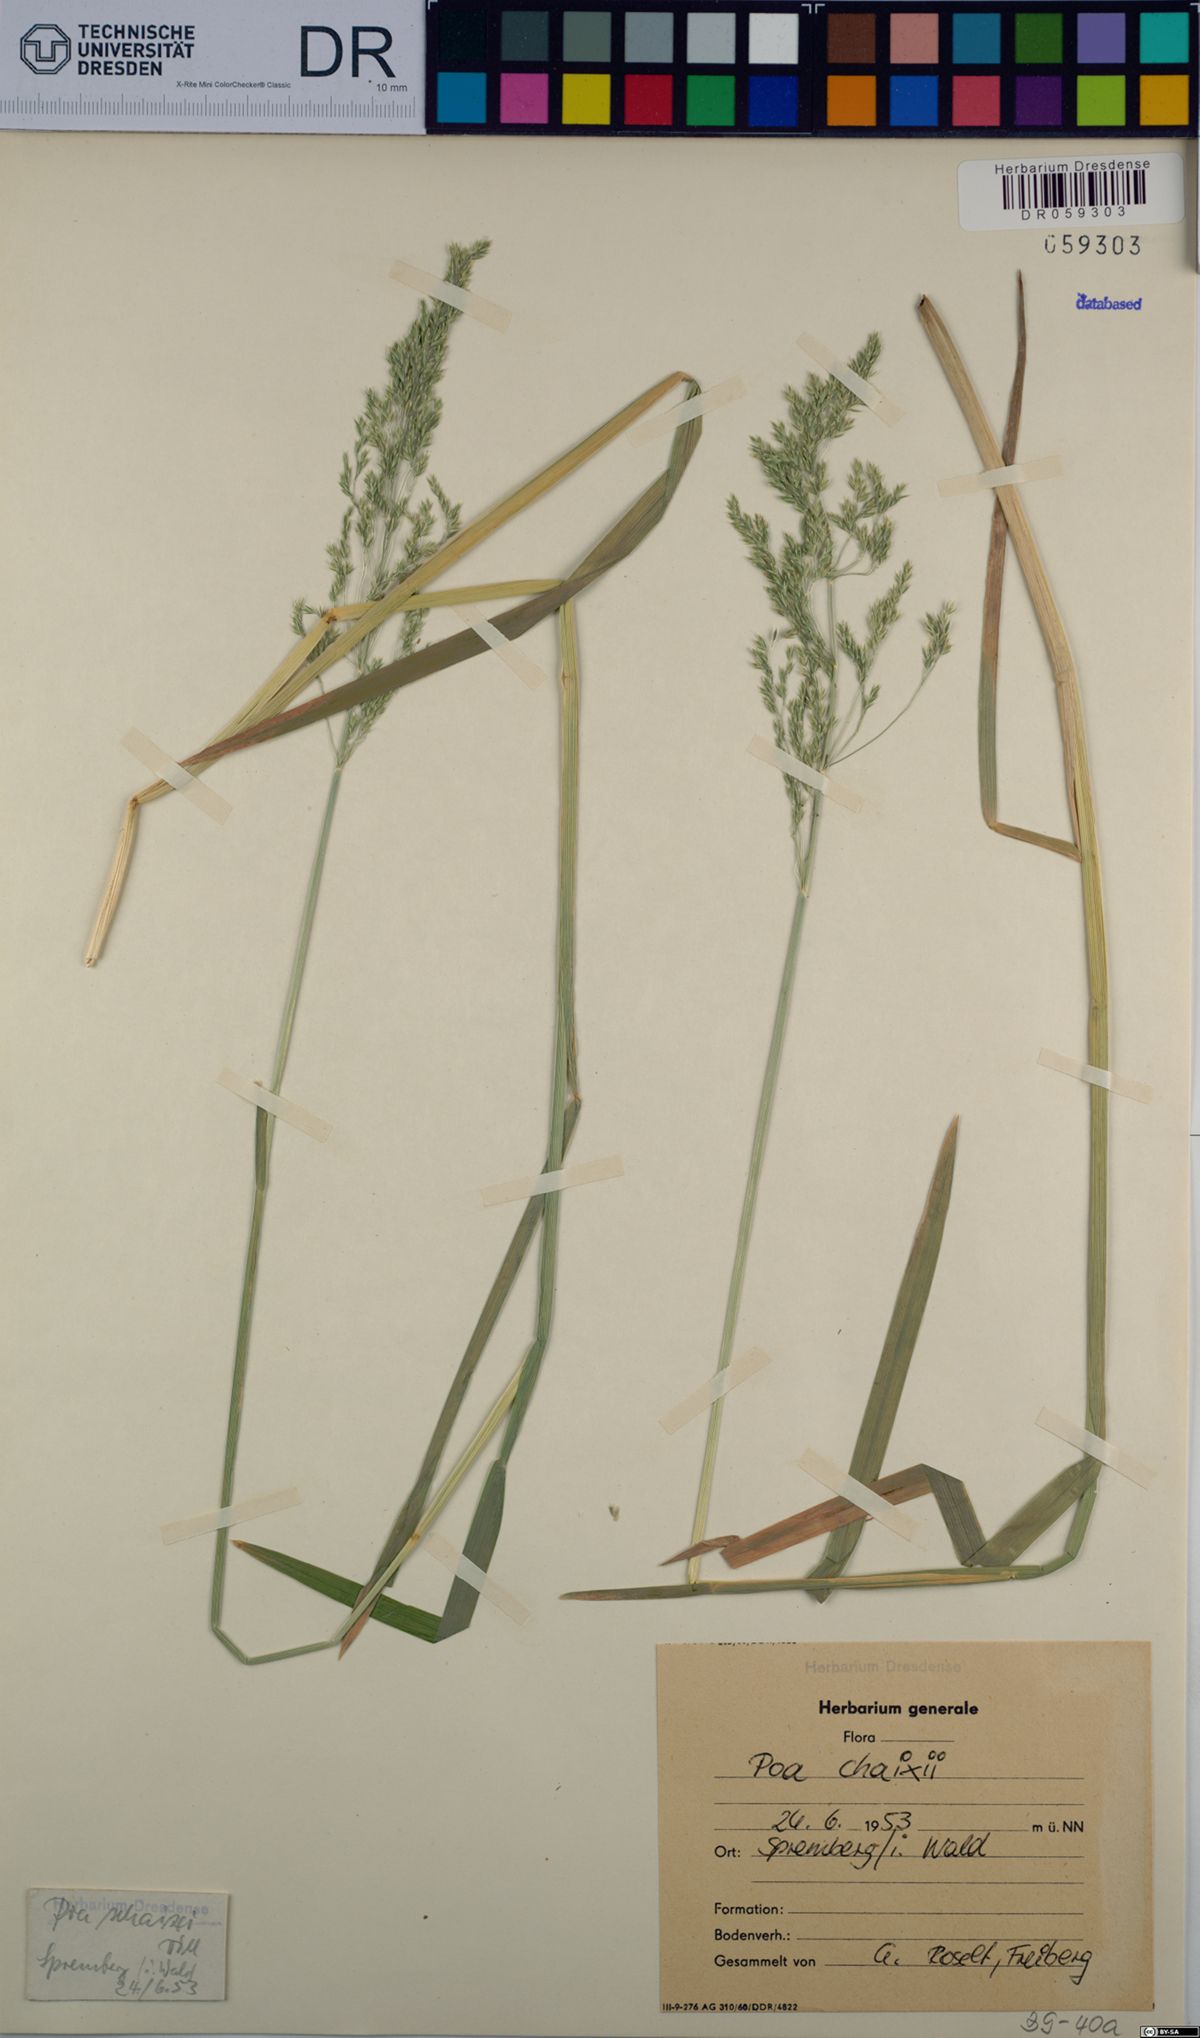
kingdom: Plantae
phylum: Tracheophyta
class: Liliopsida
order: Poales
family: Poaceae
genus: Poa
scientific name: Poa chaixii
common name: Broad-leaved meadow-grass
